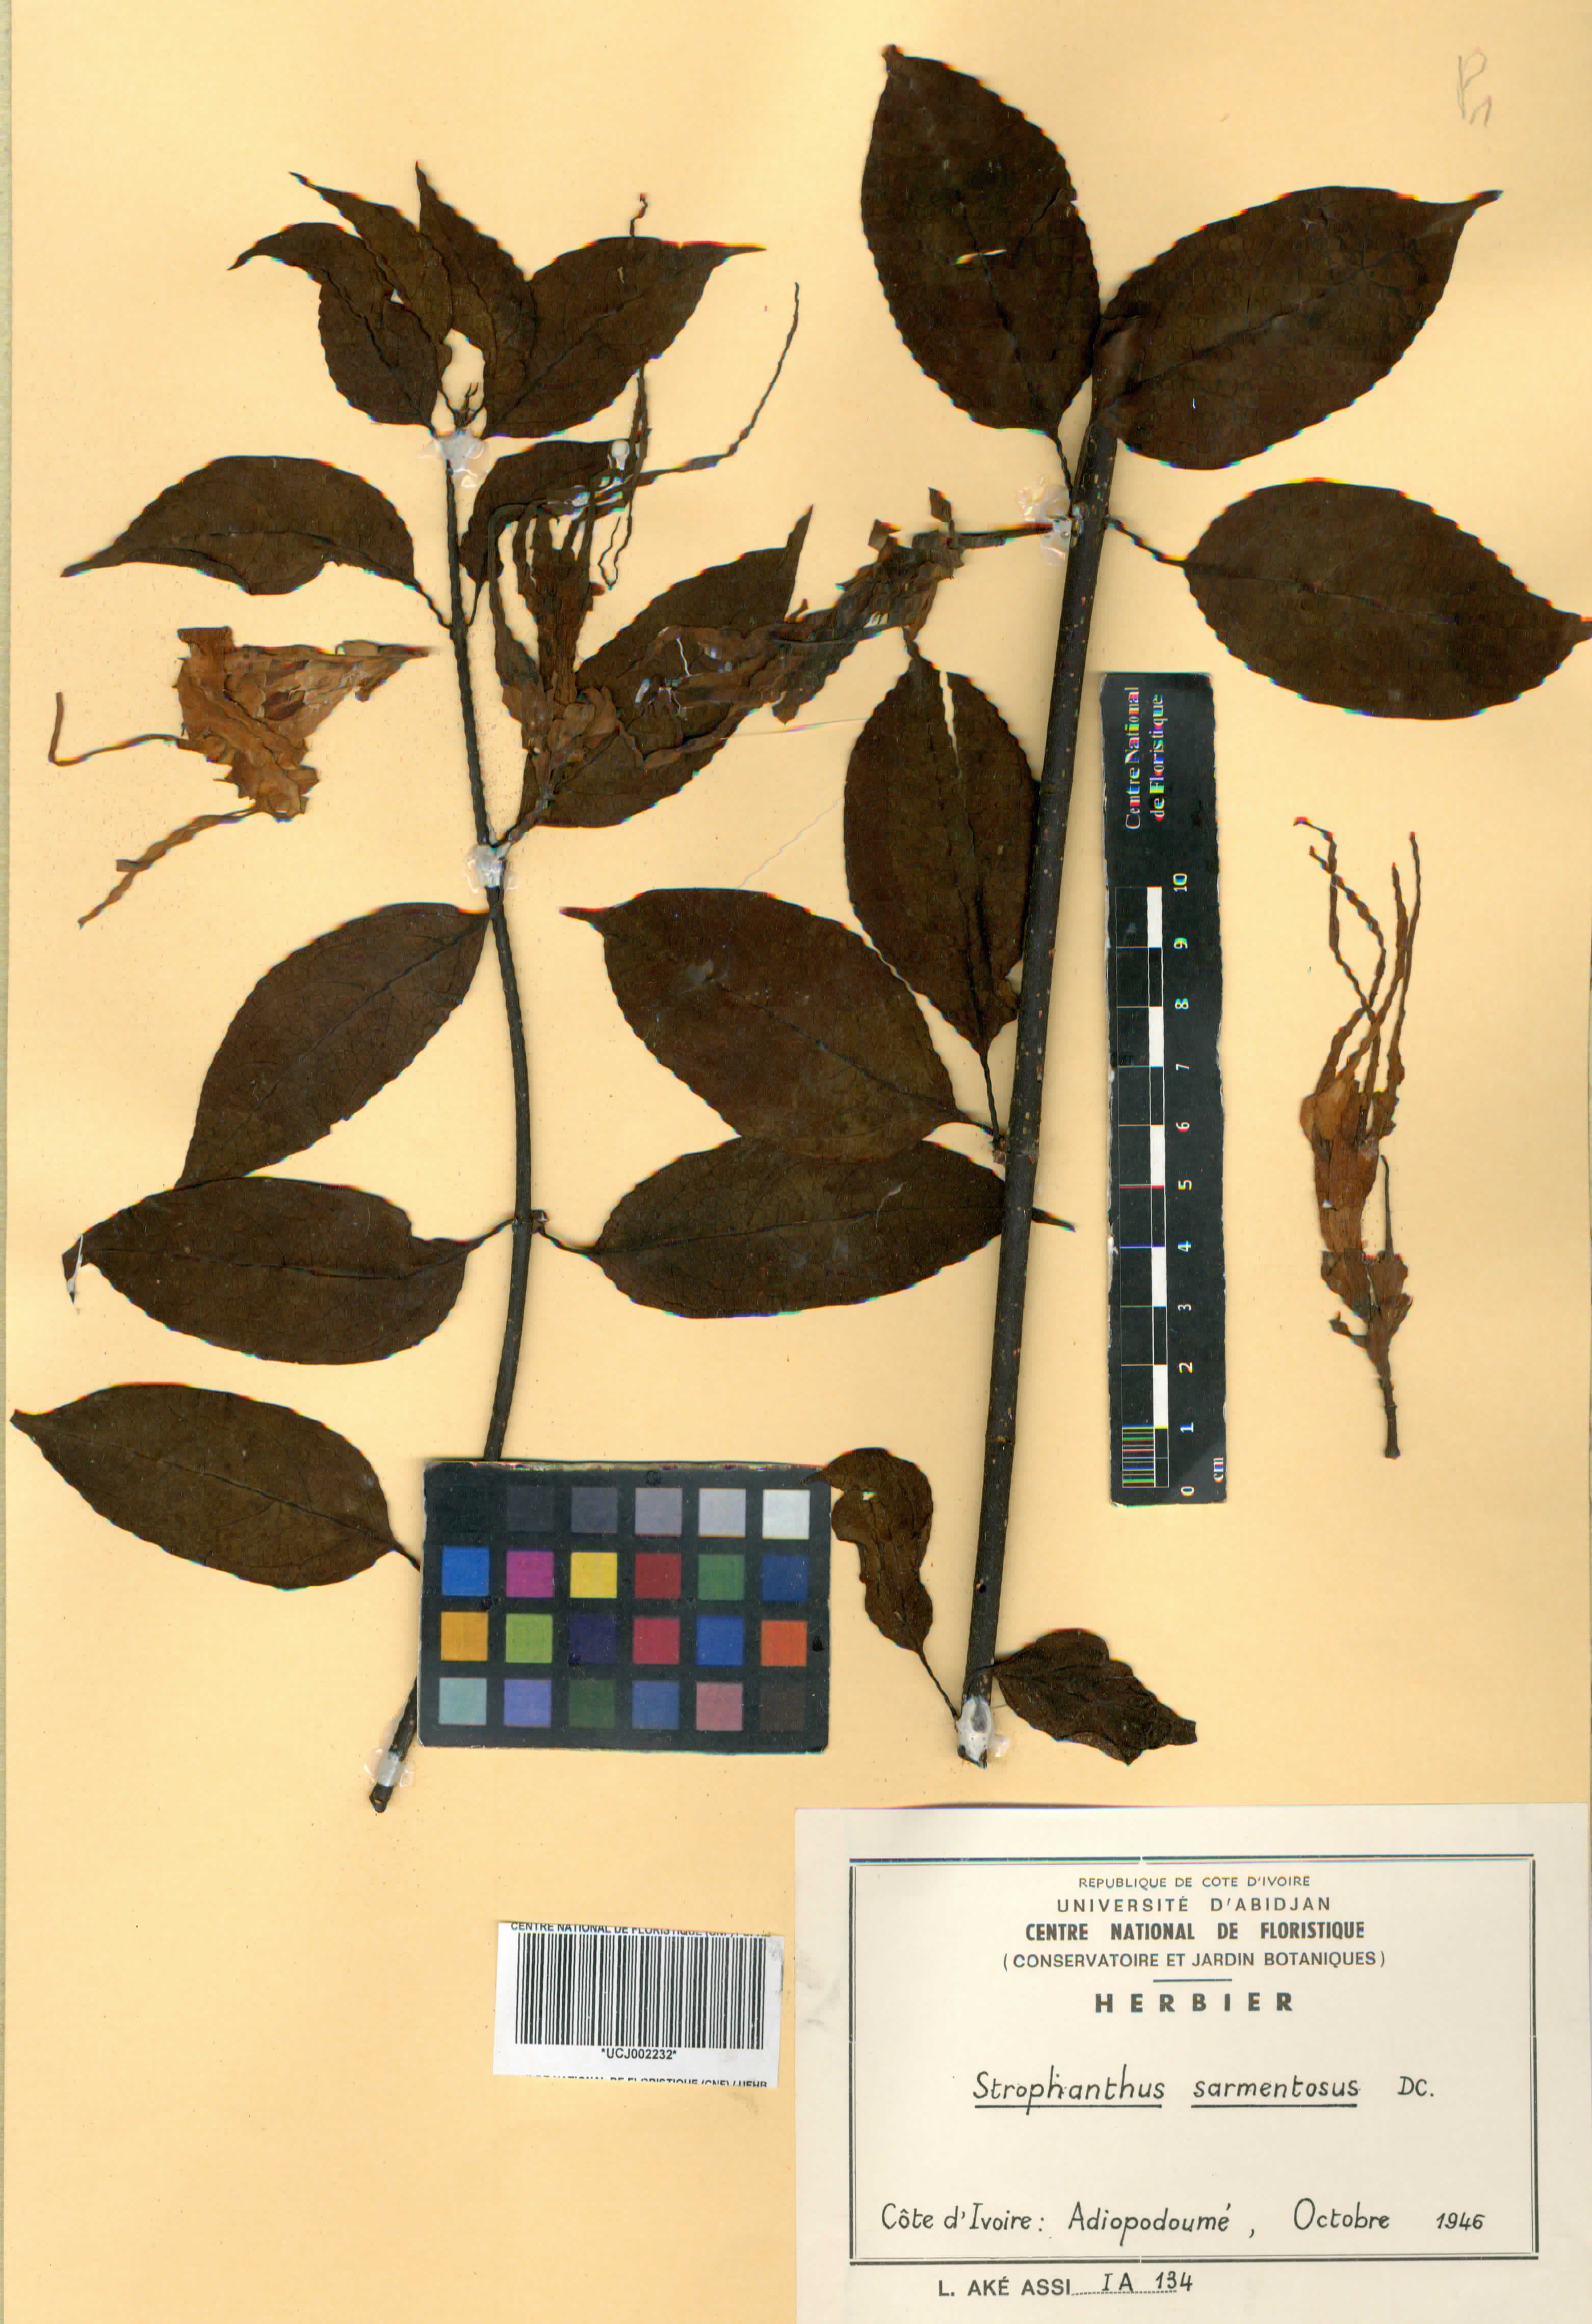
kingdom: Plantae
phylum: Tracheophyta
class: Magnoliopsida
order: Gentianales
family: Apocynaceae
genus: Strophanthus
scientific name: Strophanthus sarmentosus
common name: Poison arrowvine
